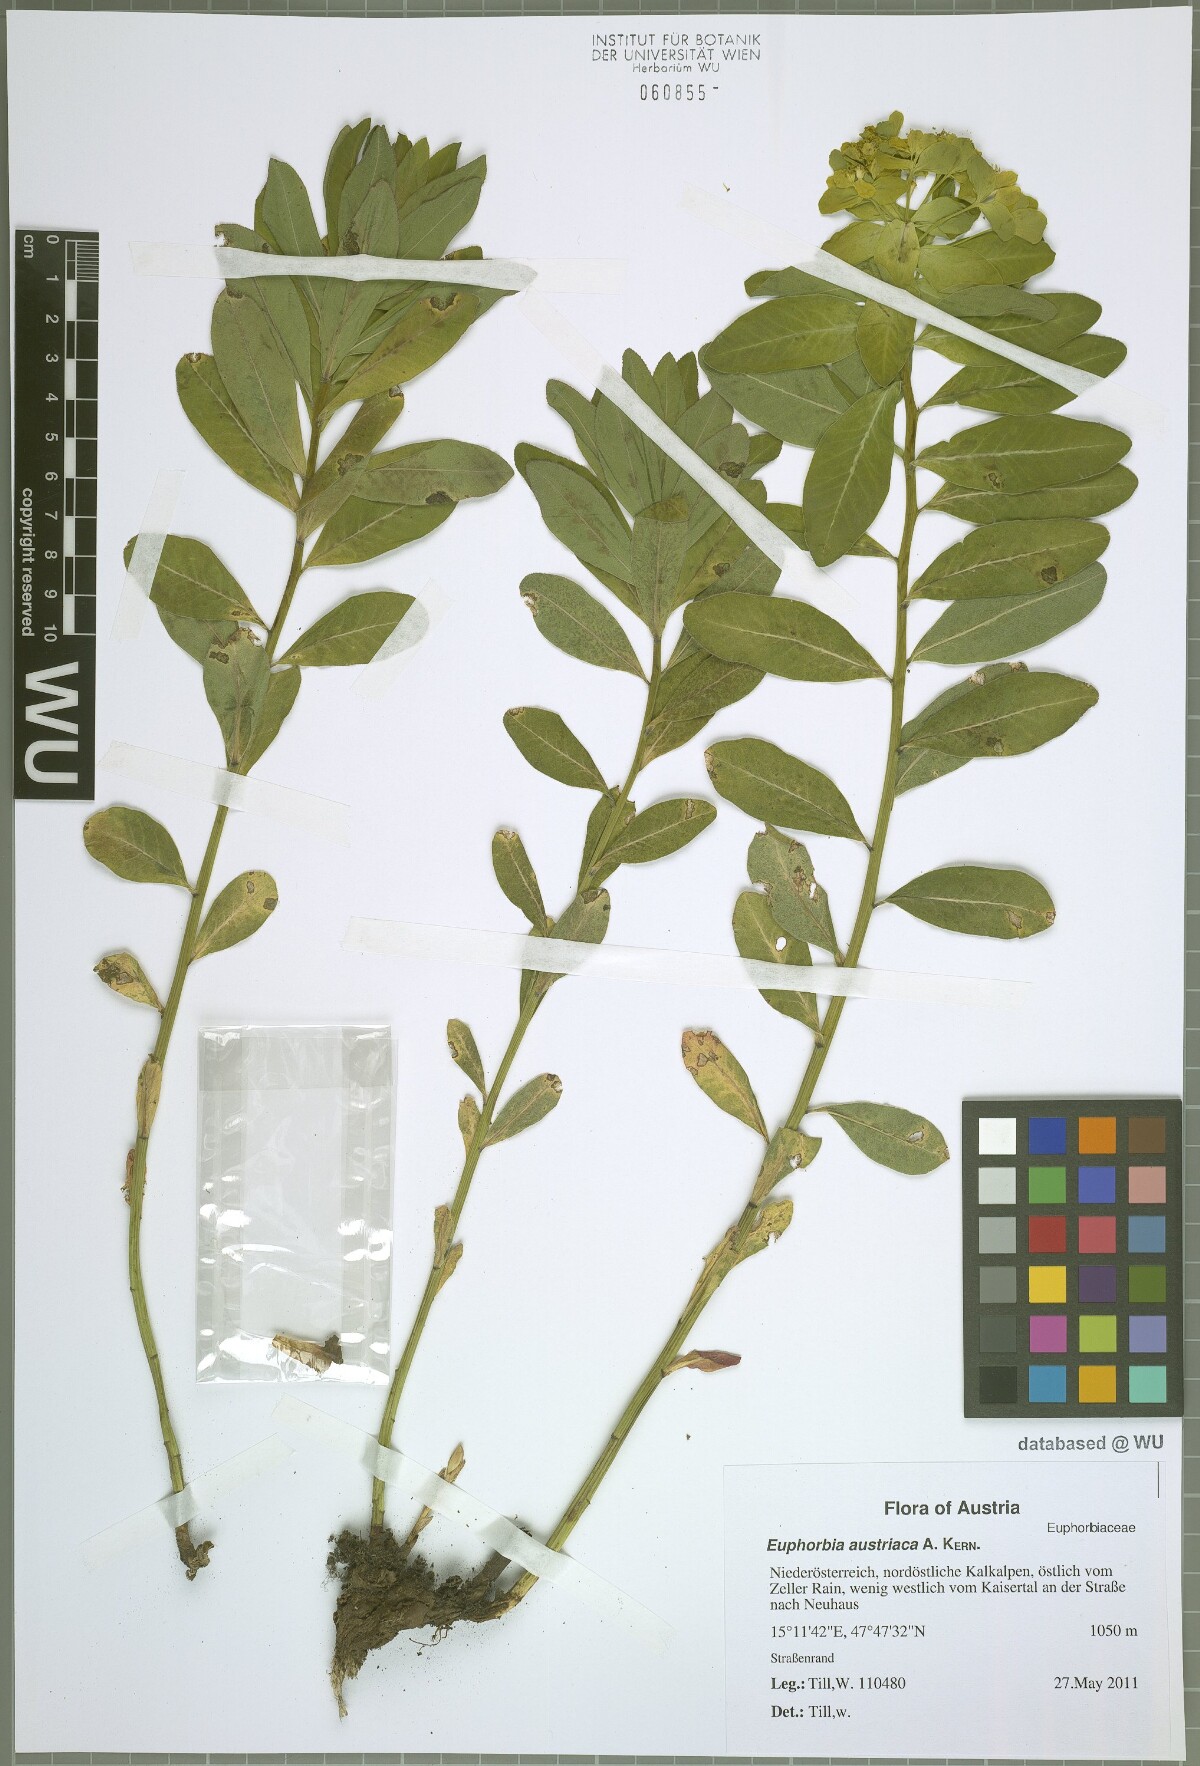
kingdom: Plantae
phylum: Tracheophyta
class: Magnoliopsida
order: Malpighiales
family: Euphorbiaceae
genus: Euphorbia
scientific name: Euphorbia austriaca
